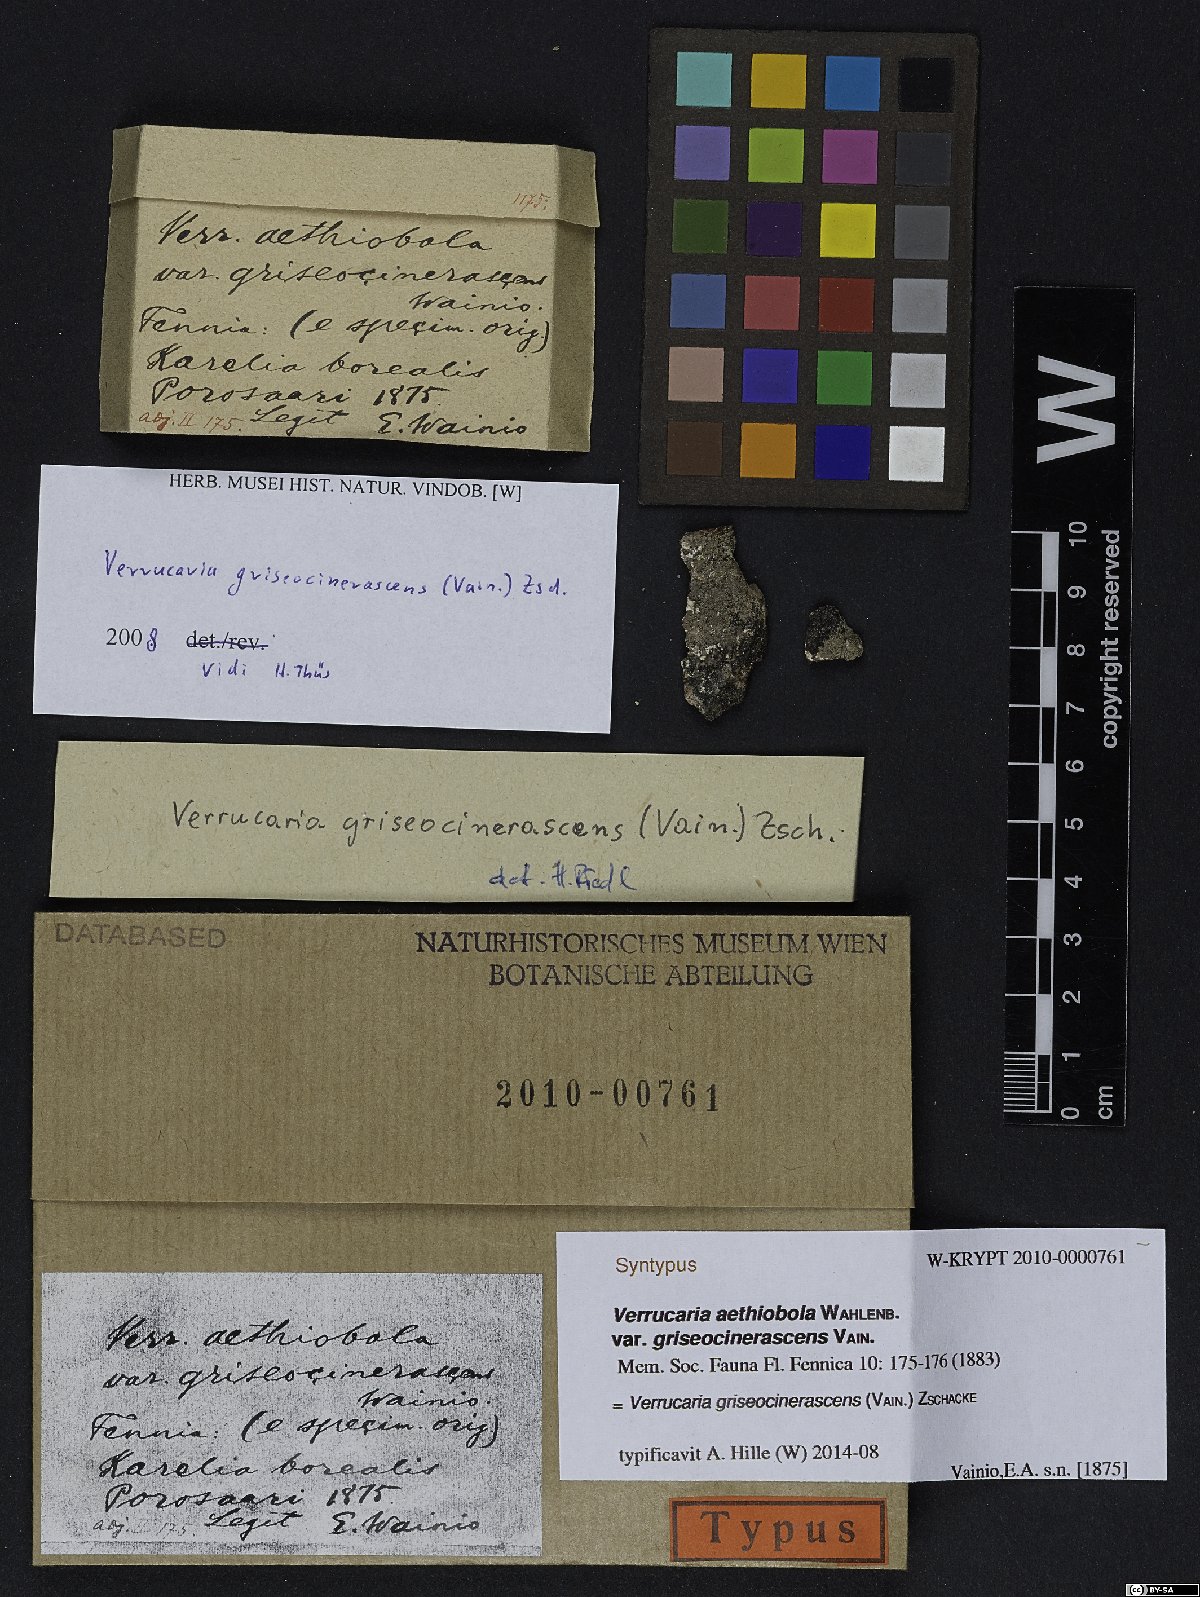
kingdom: Fungi
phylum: Ascomycota
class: Eurotiomycetes
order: Verrucariales
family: Verrucariaceae
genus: Verrucaria
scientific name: Verrucaria griseocinerascens
